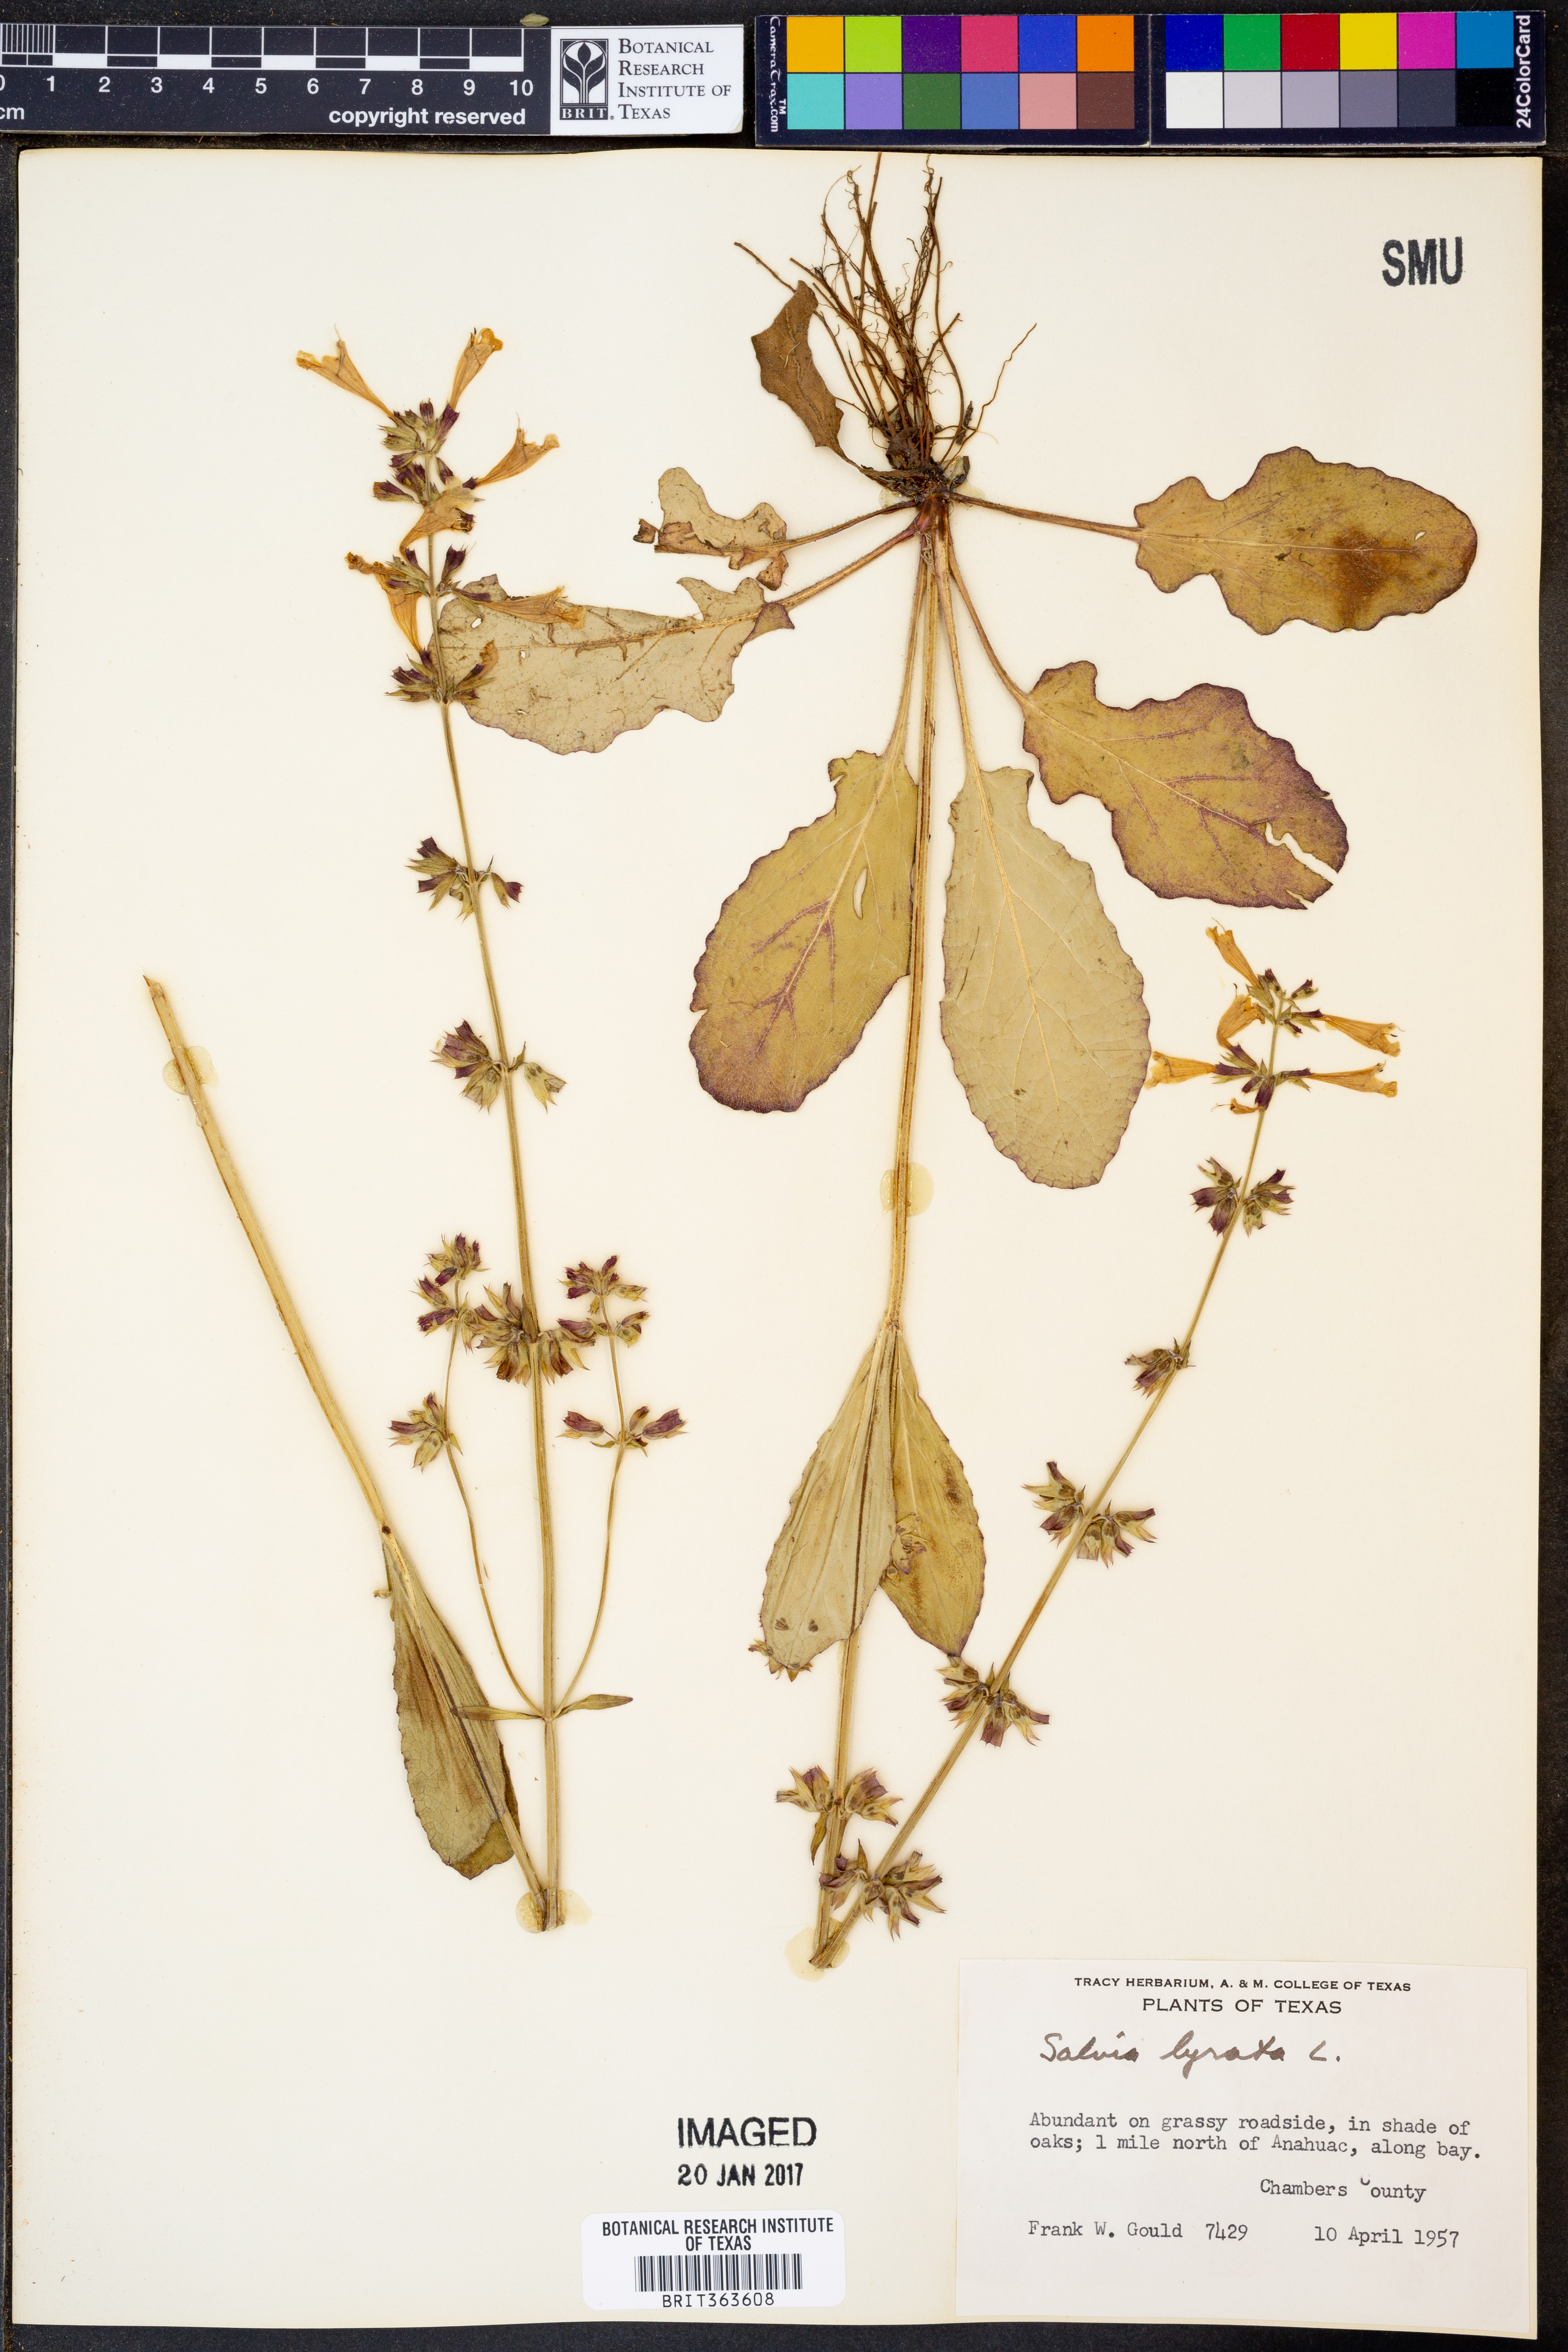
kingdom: Plantae
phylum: Tracheophyta
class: Magnoliopsida
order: Lamiales
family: Lamiaceae
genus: Salvia
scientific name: Salvia lyrata
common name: Cancerweed
